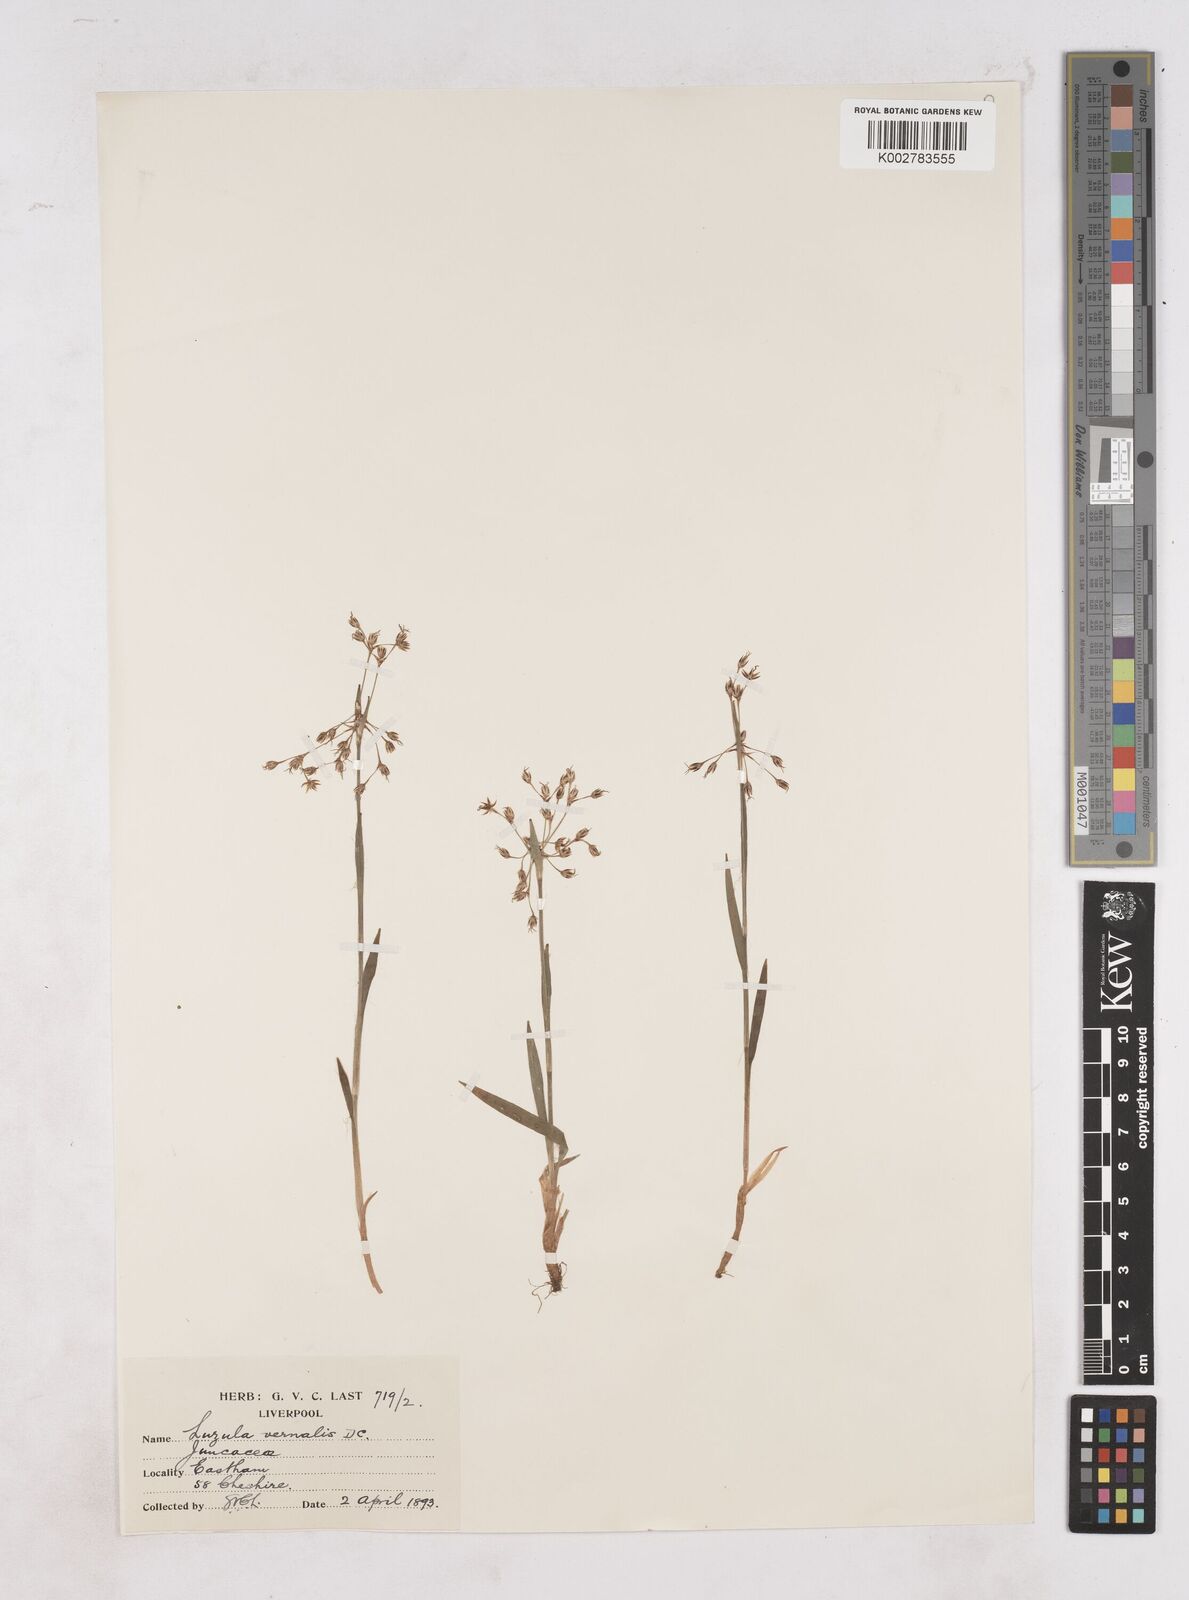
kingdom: Plantae
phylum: Tracheophyta
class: Liliopsida
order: Poales
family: Juncaceae
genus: Luzula
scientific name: Luzula
